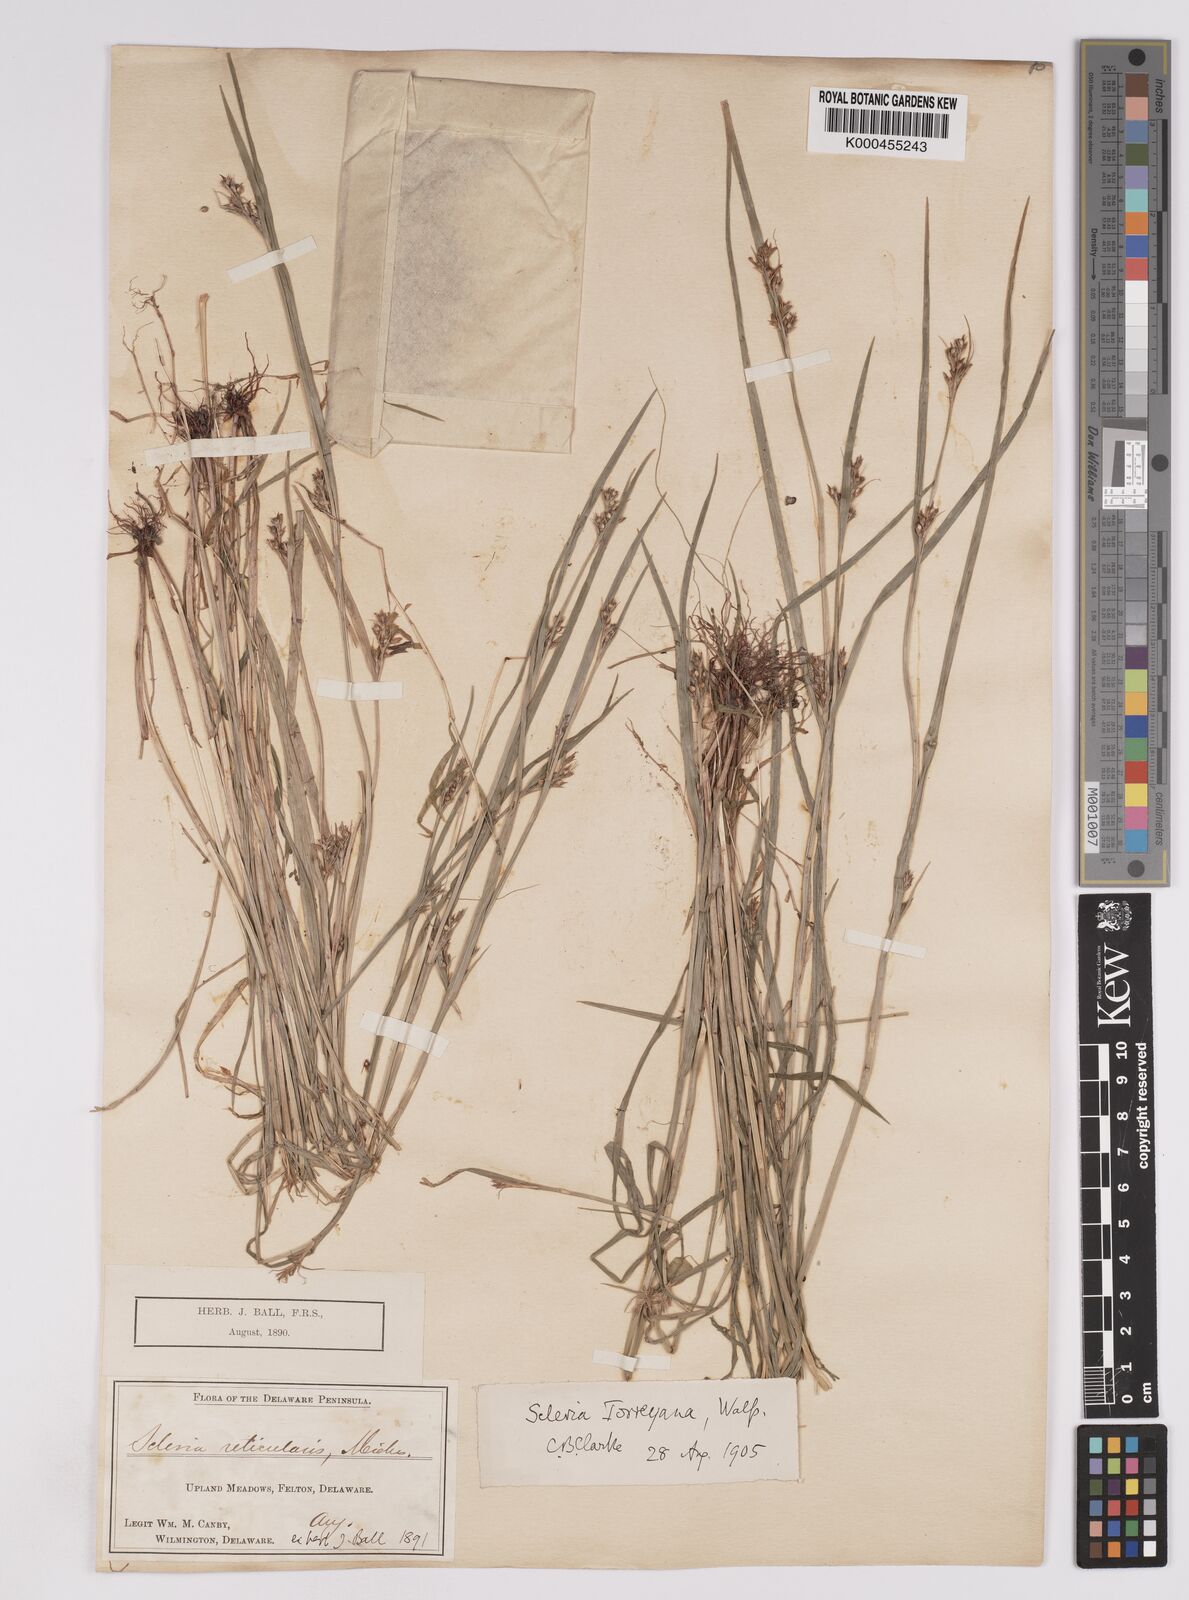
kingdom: Plantae
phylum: Tracheophyta
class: Liliopsida
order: Poales
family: Cyperaceae
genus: Scleria
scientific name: Scleria
